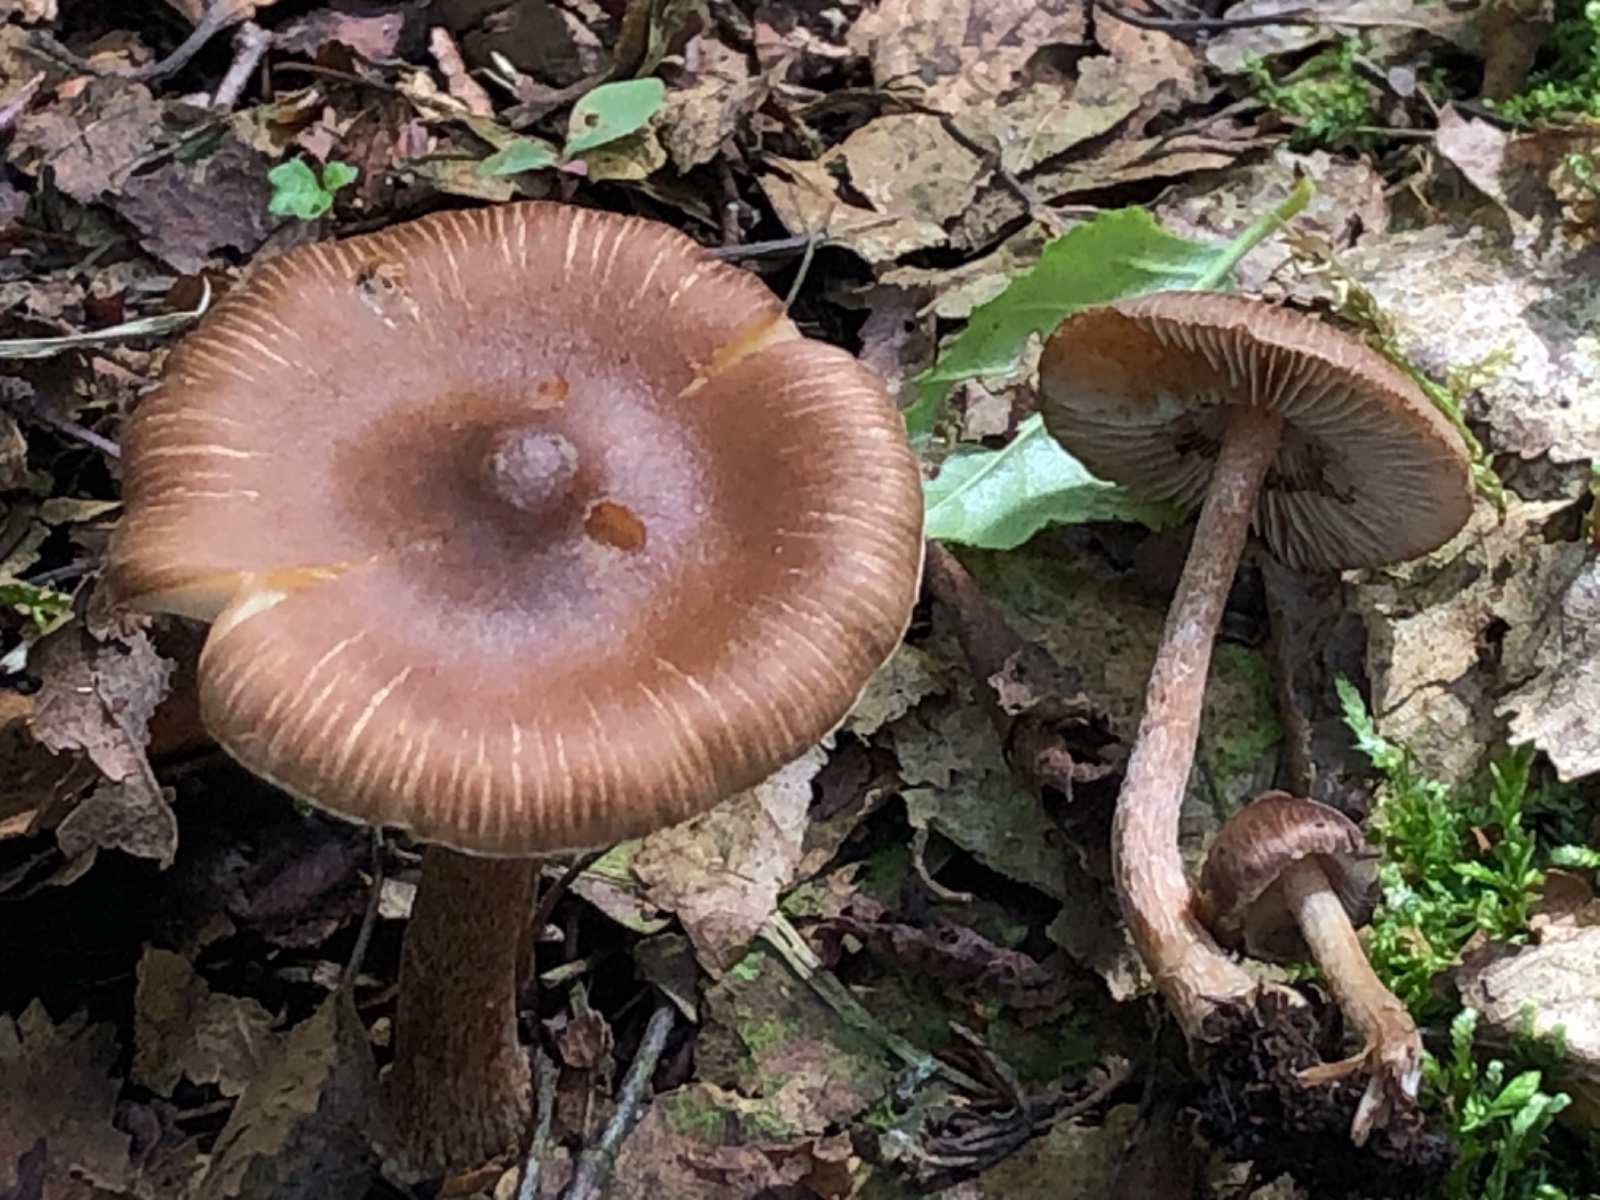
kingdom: Fungi
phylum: Basidiomycota
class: Agaricomycetes
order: Agaricales
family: Inocybaceae
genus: Inocybe
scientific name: Inocybe
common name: trævlhat
